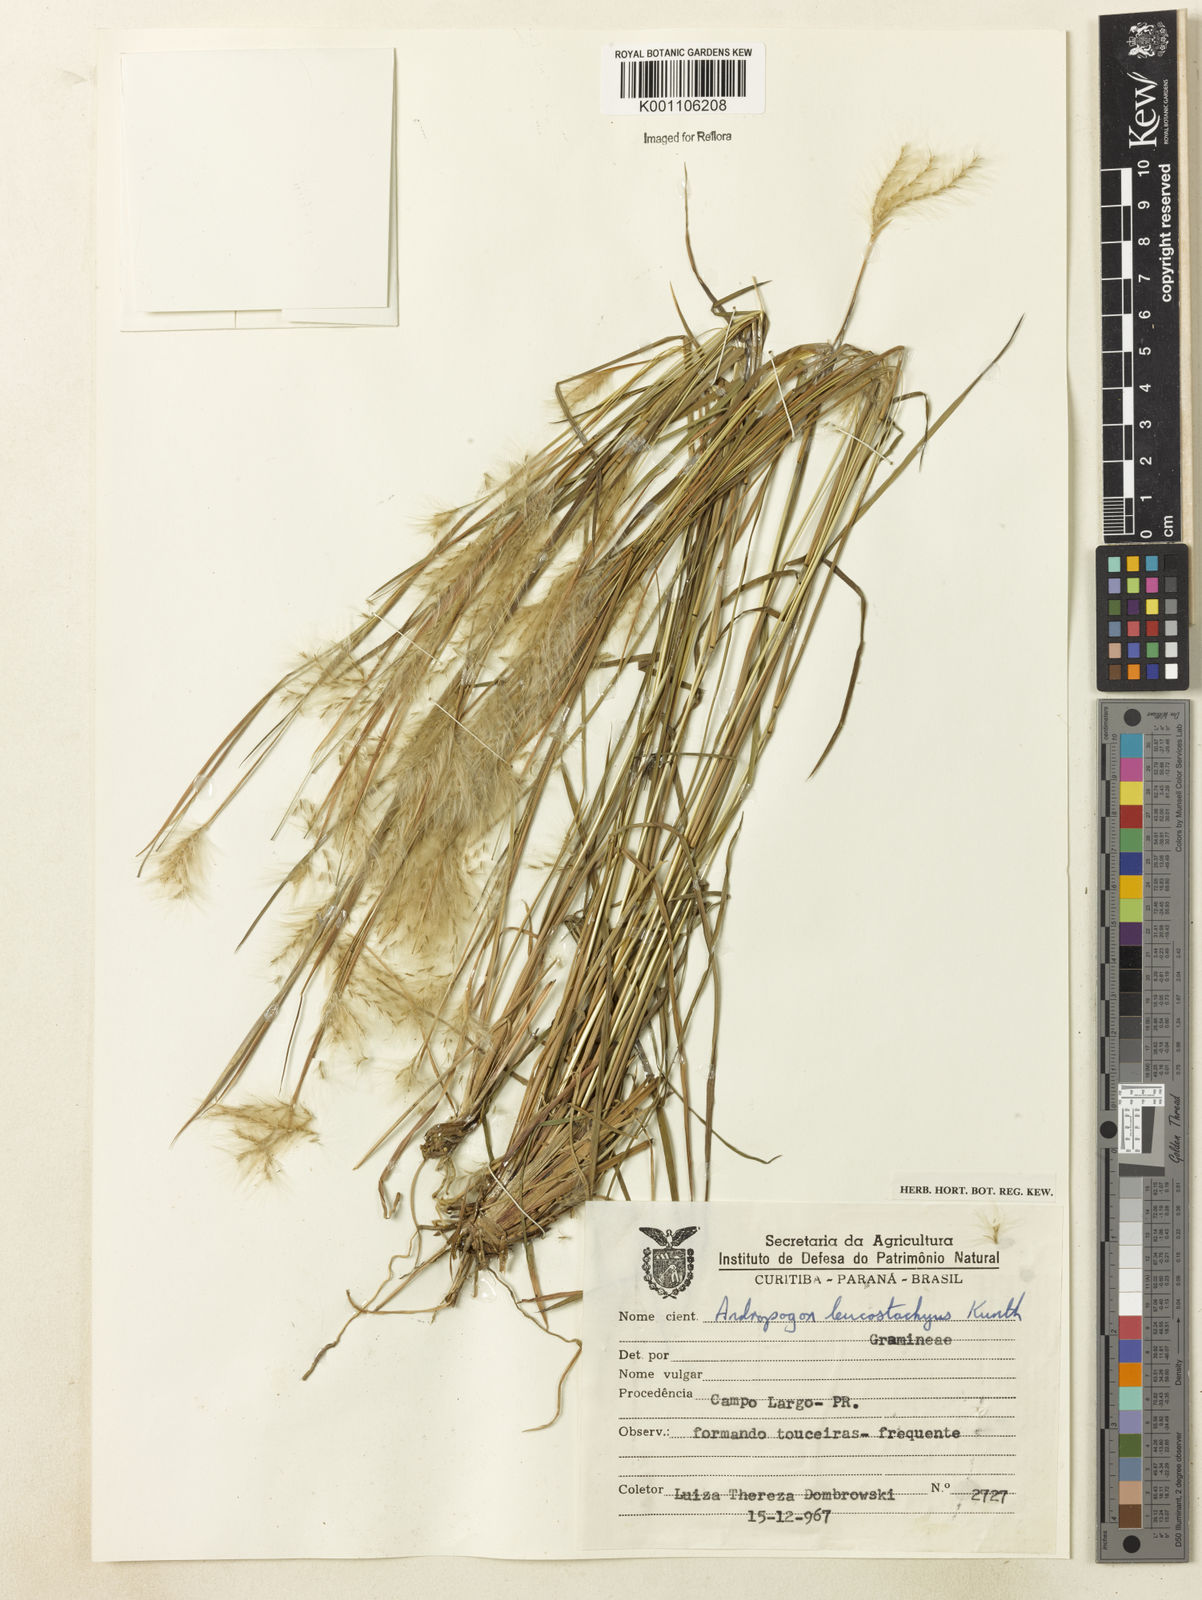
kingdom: Plantae
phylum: Tracheophyta
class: Liliopsida
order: Poales
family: Poaceae
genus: Andropogon
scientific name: Andropogon leucostachyus
